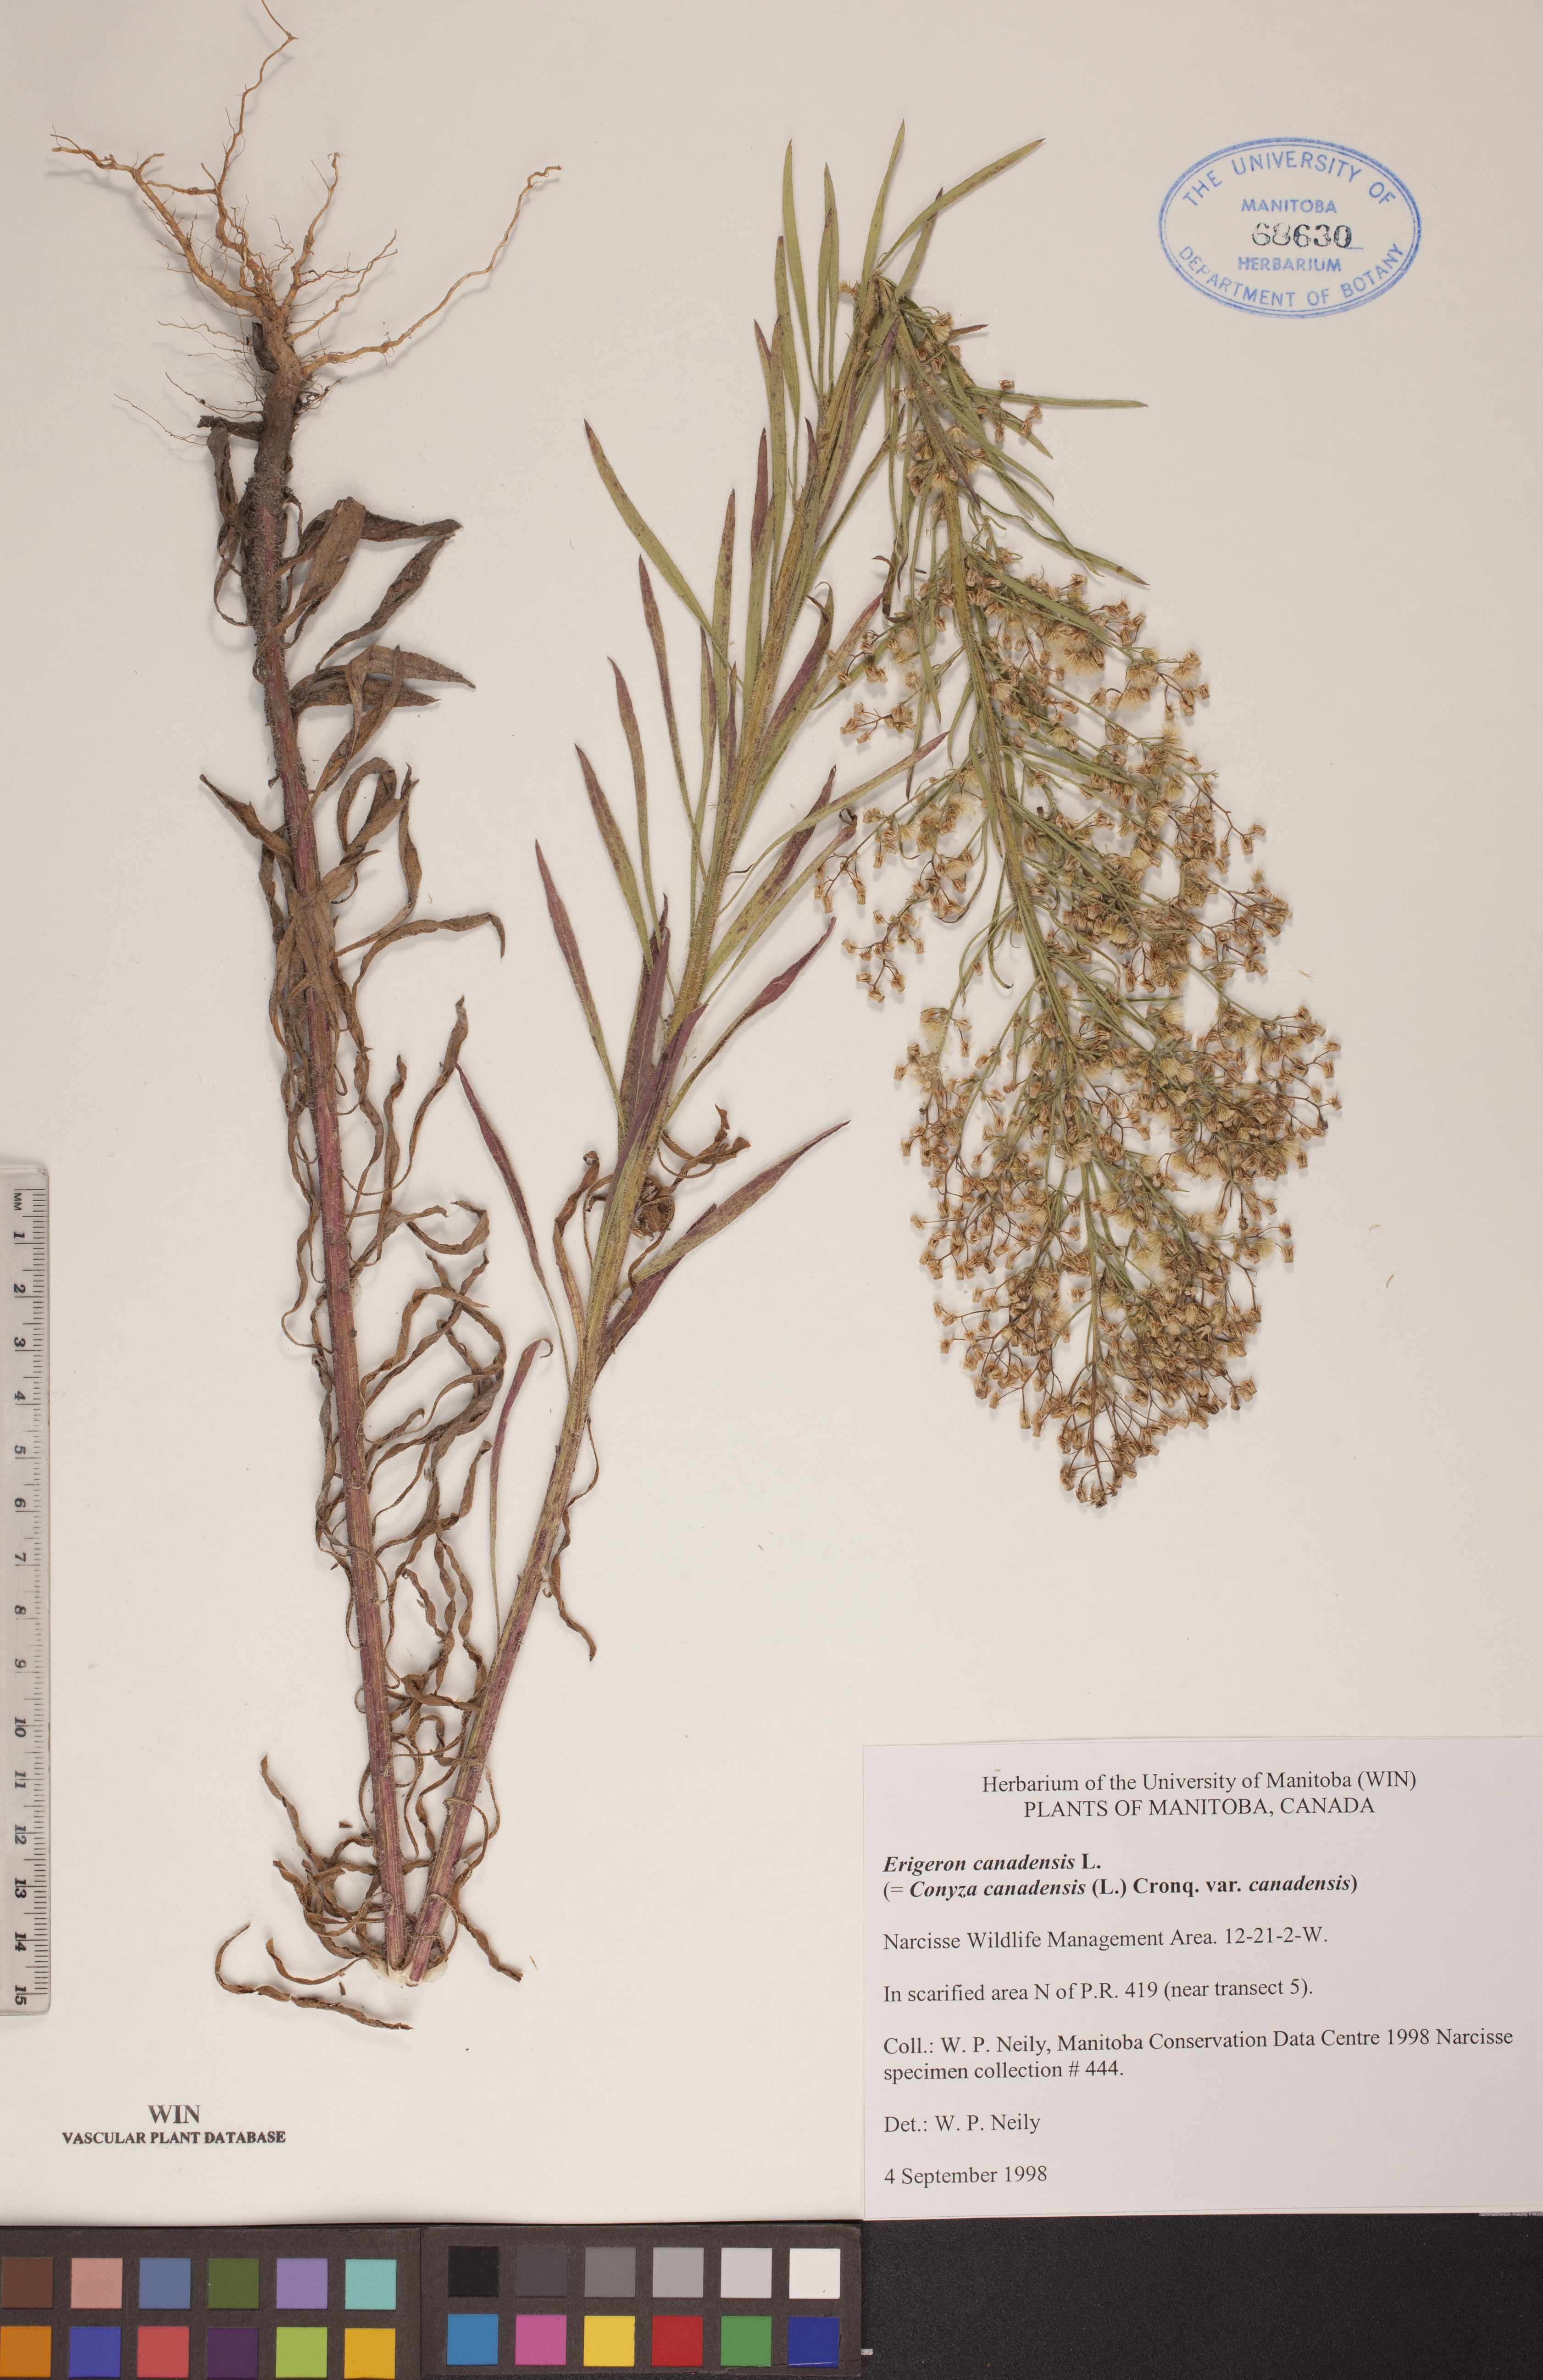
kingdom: Plantae
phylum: Tracheophyta
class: Magnoliopsida
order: Asterales
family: Asteraceae
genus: Erigeron
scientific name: Erigeron canadensis
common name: Canadian fleabane
